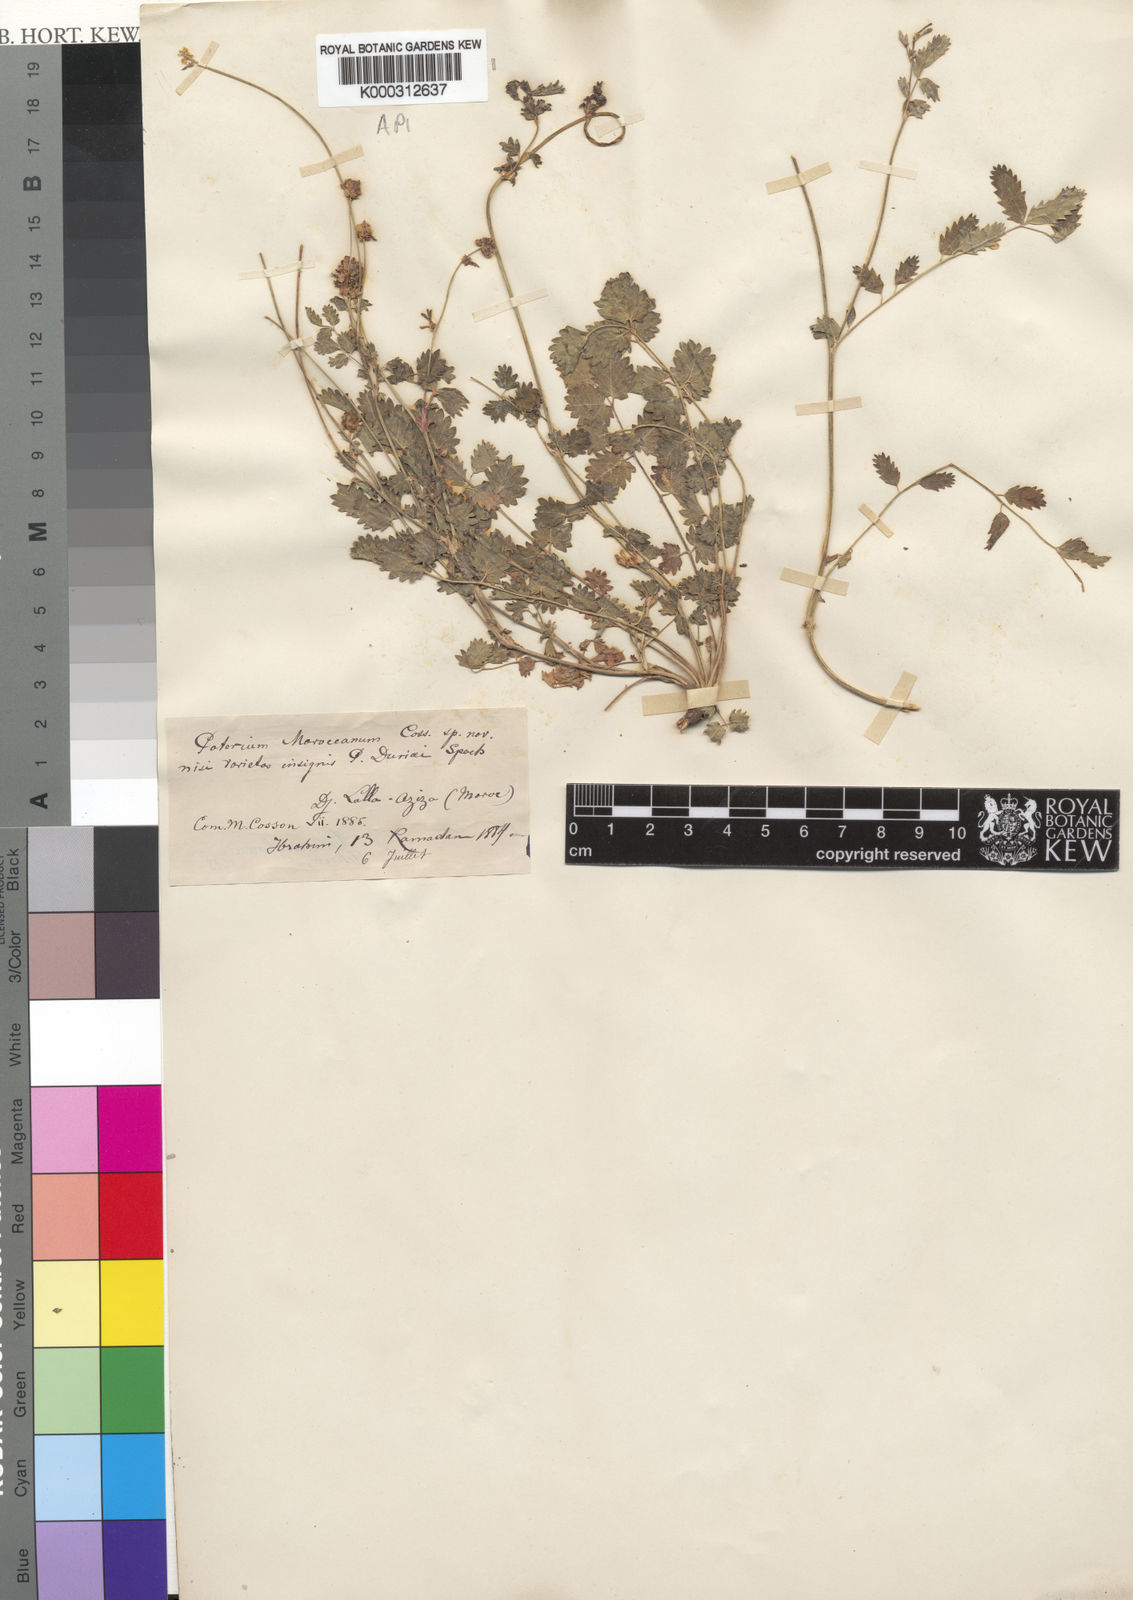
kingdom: Plantae
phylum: Tracheophyta
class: Magnoliopsida
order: Rosales
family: Rosaceae
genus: Poterium
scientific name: Poterium sanguisorba
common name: Salad burnet
